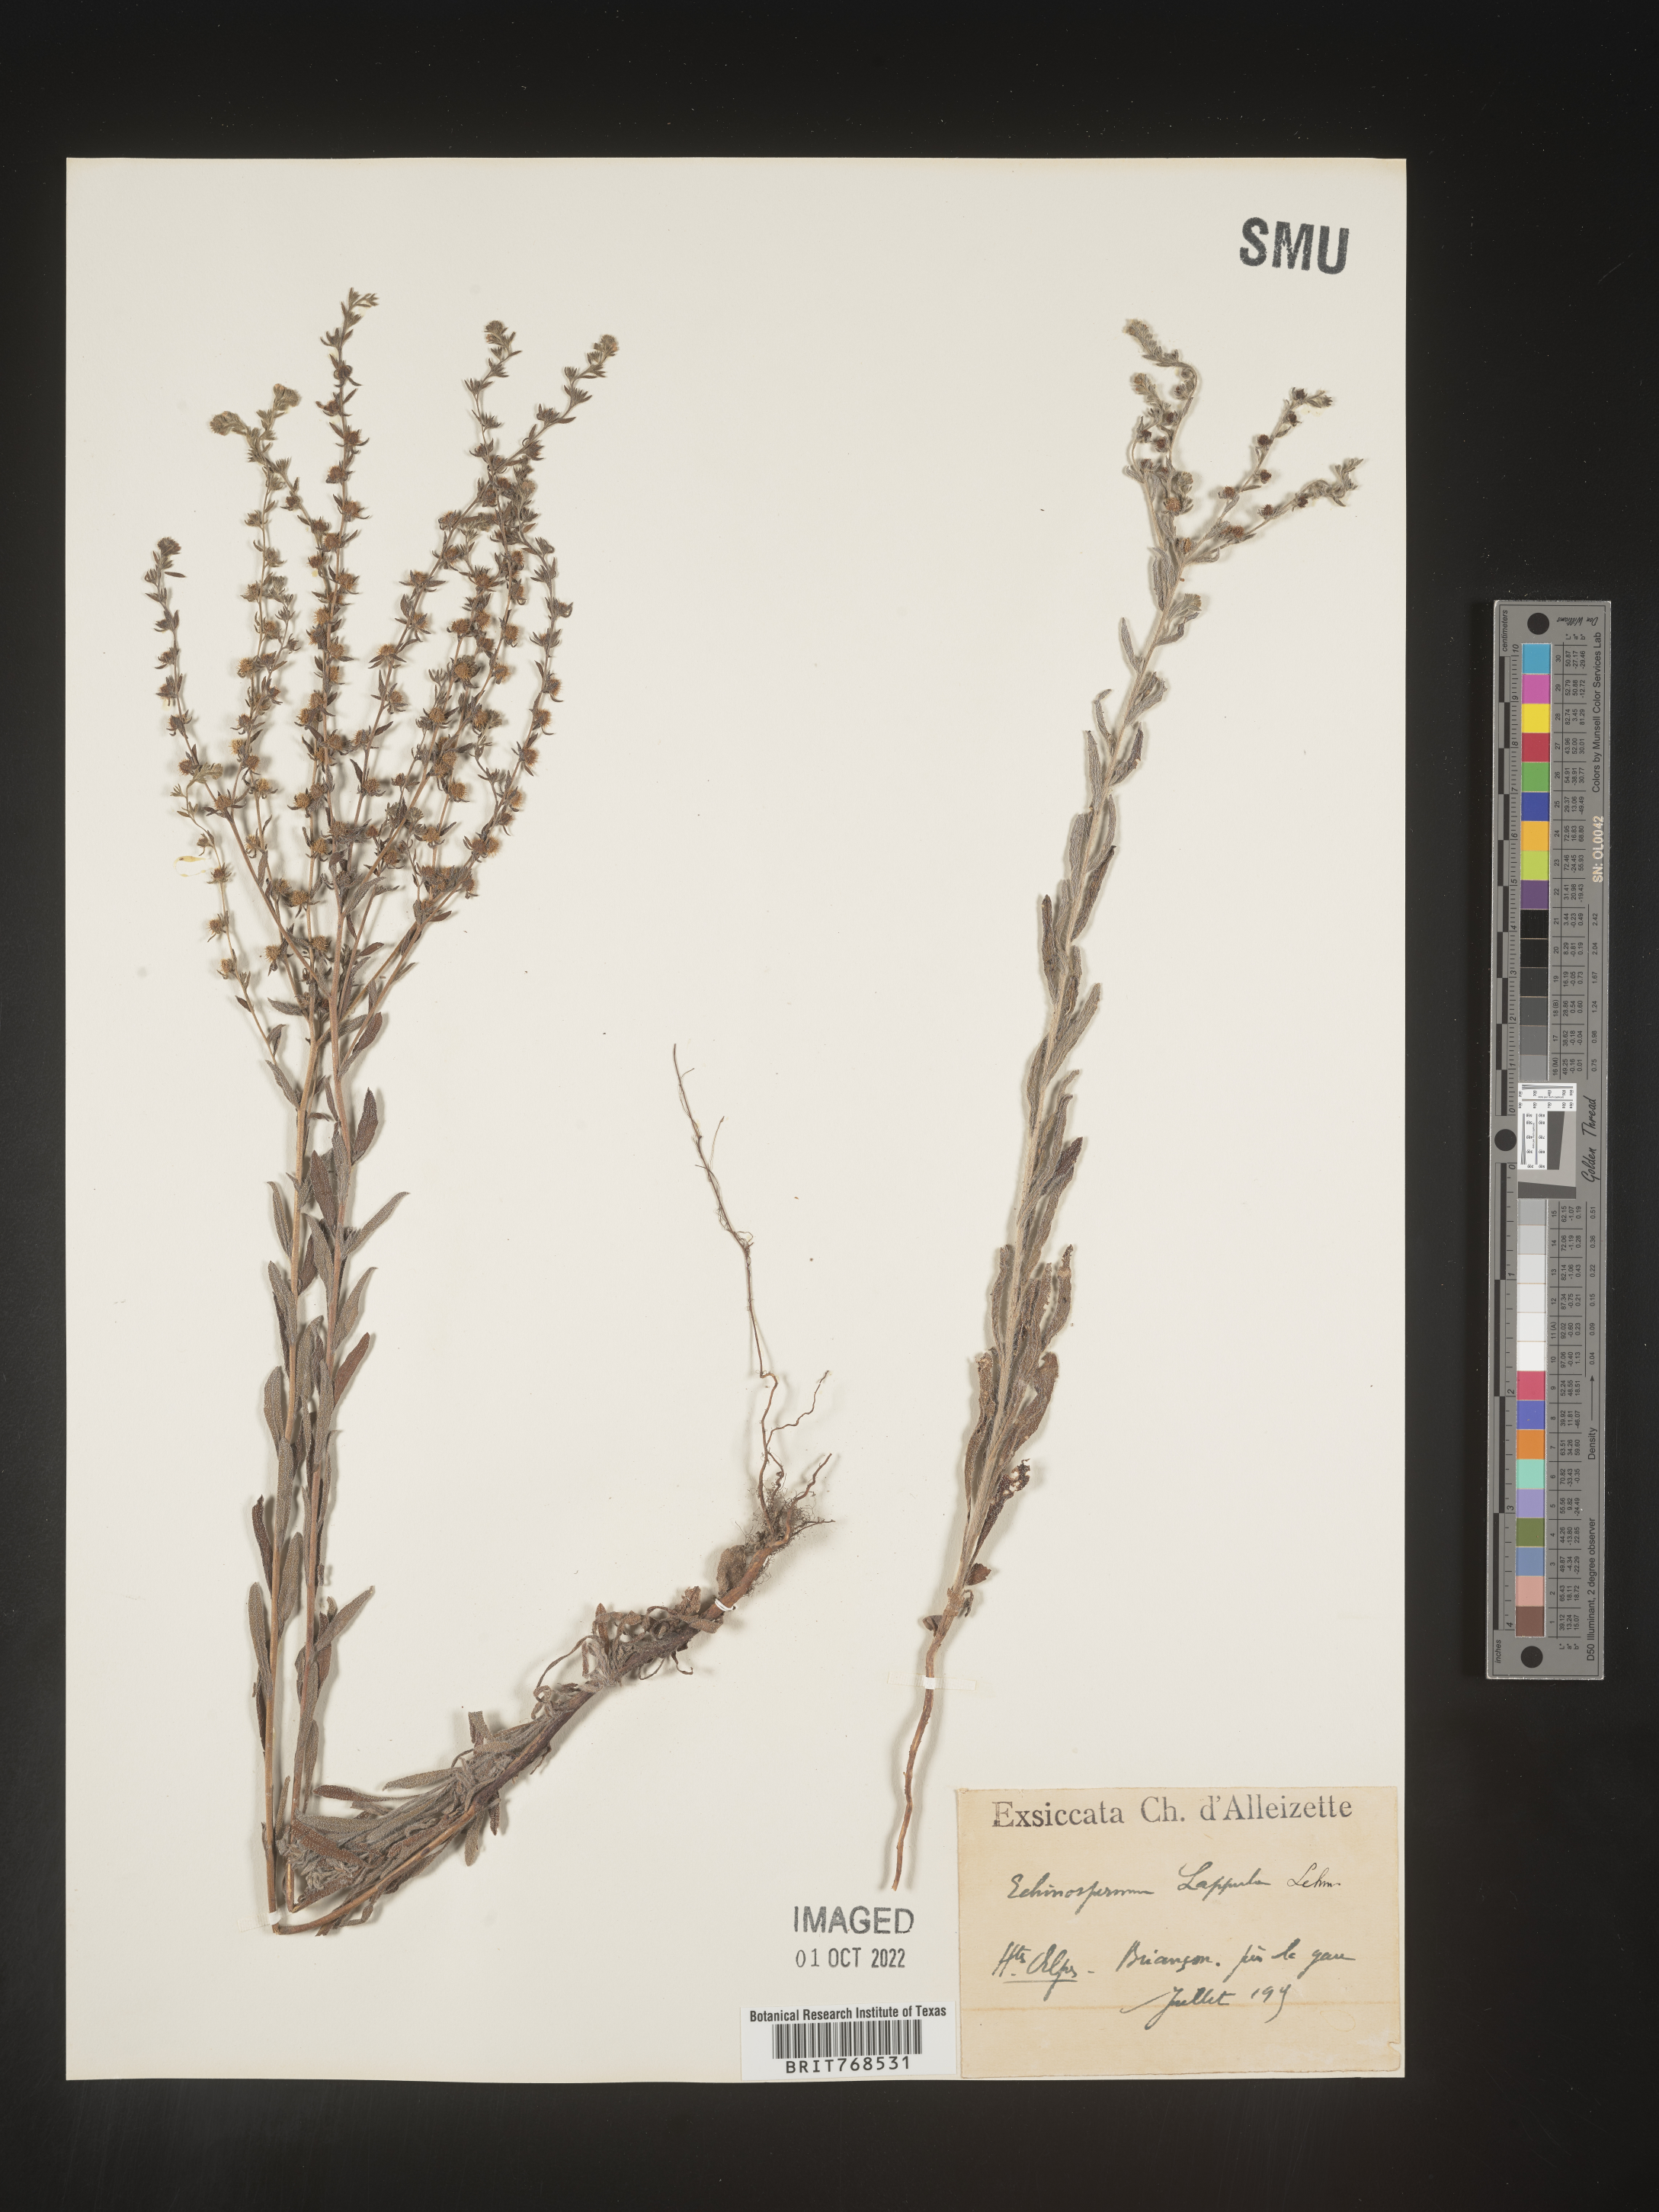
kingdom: Plantae
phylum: Tracheophyta
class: Magnoliopsida
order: Boraginales
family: Boraginaceae
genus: Lappula
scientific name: Lappula
